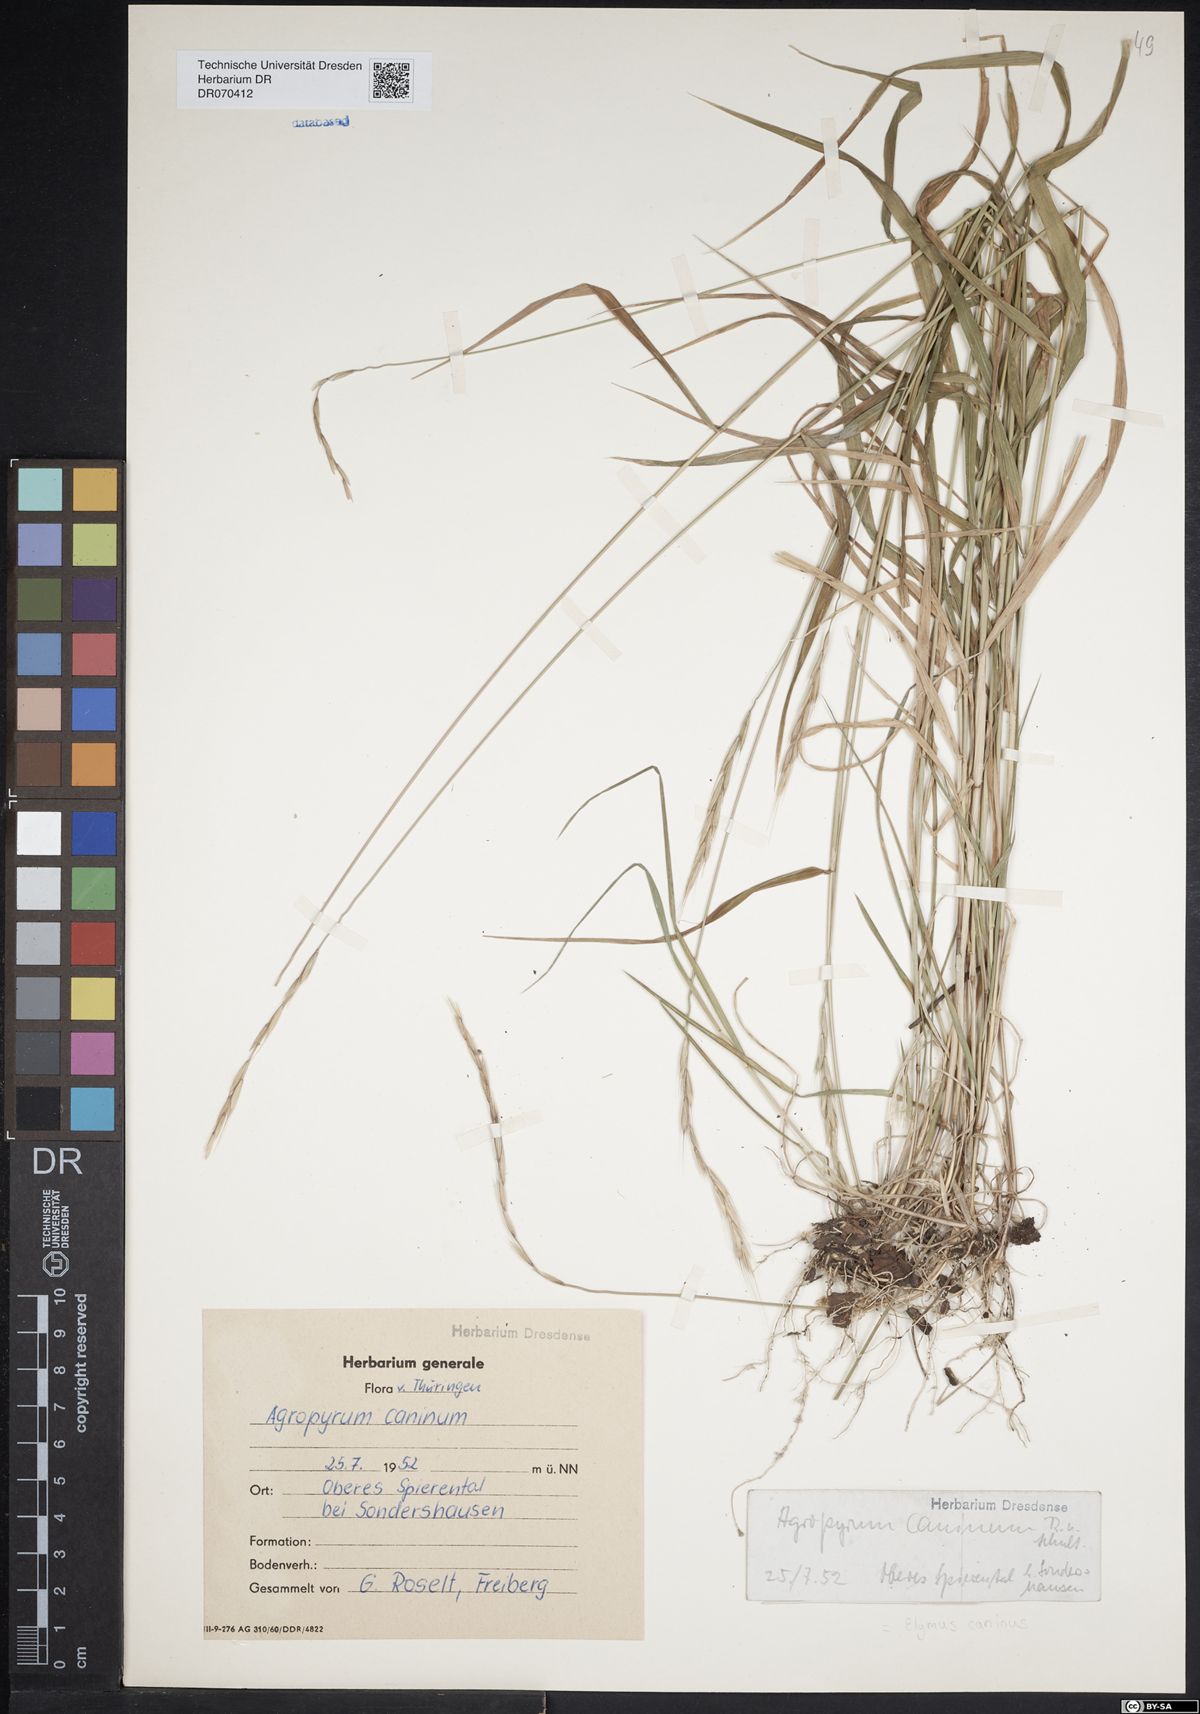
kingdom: Plantae
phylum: Tracheophyta
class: Liliopsida
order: Poales
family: Poaceae
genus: Elymus
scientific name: Elymus caninus
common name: Bearded couch
